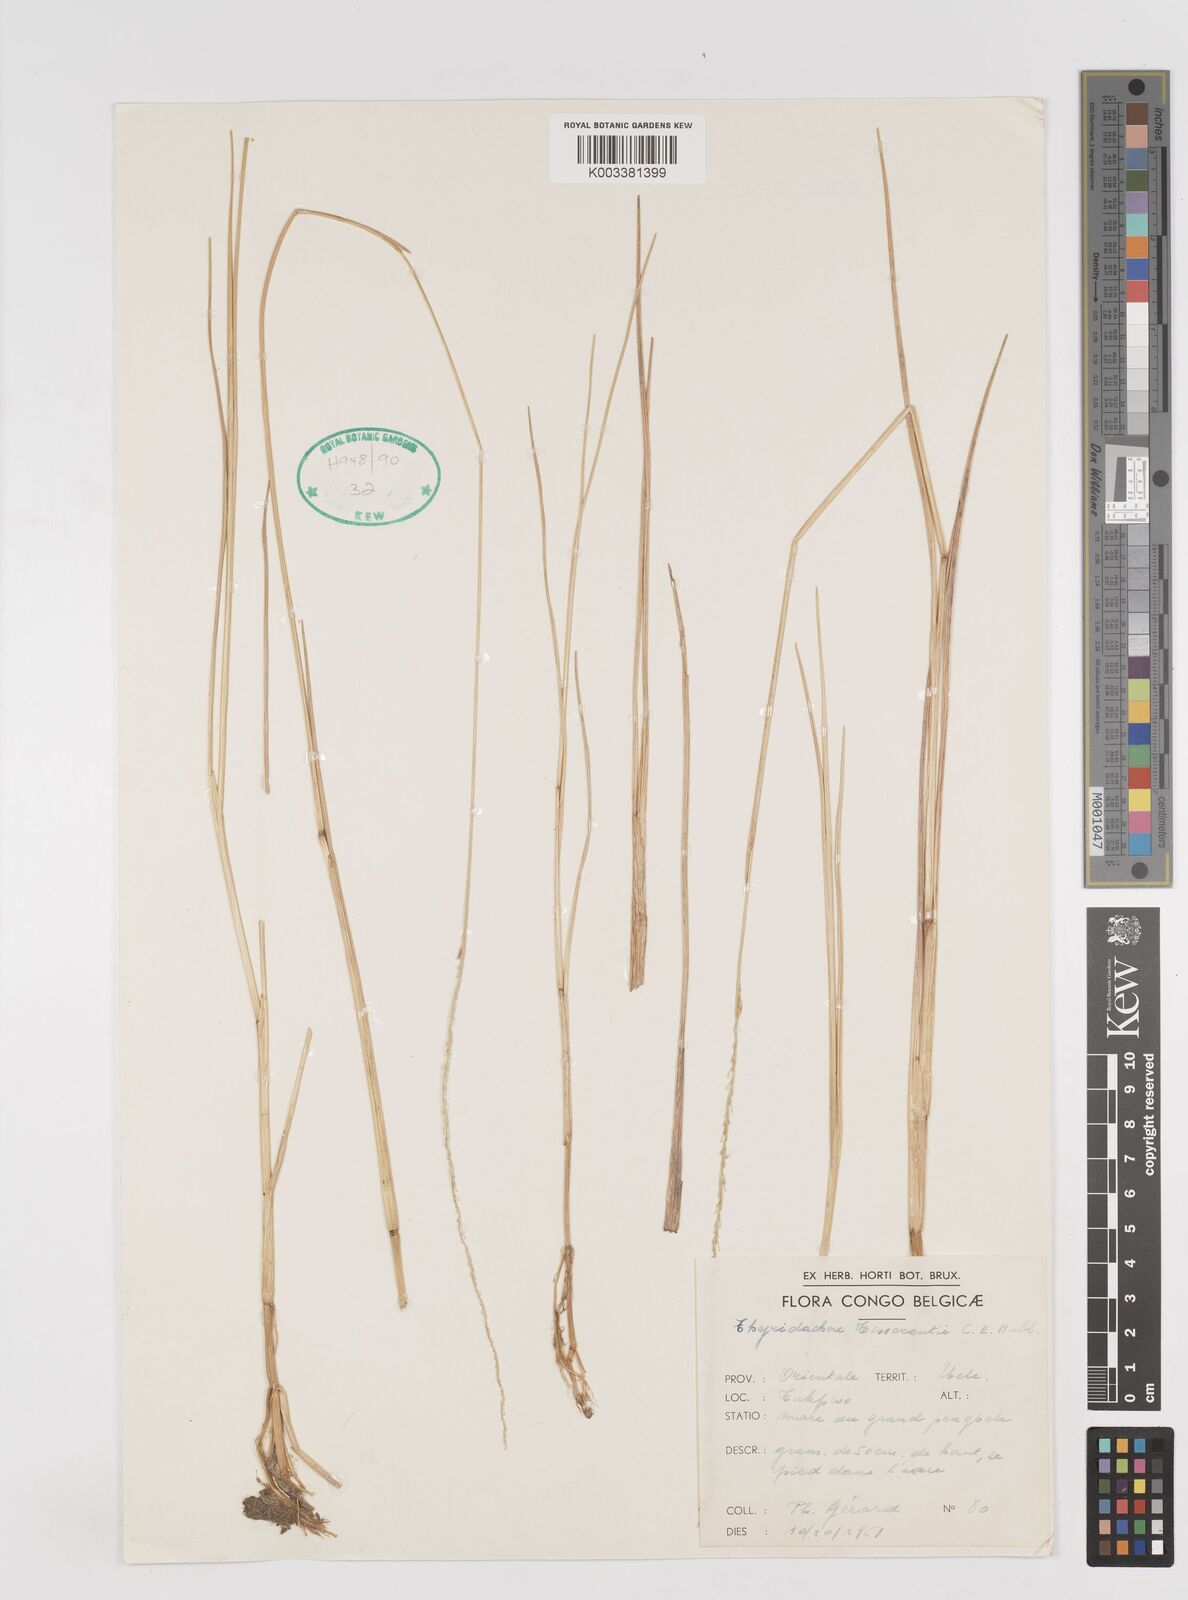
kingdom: Plantae
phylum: Tracheophyta
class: Liliopsida
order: Poales
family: Poaceae
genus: Thyridachne
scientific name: Thyridachne tisserantii
